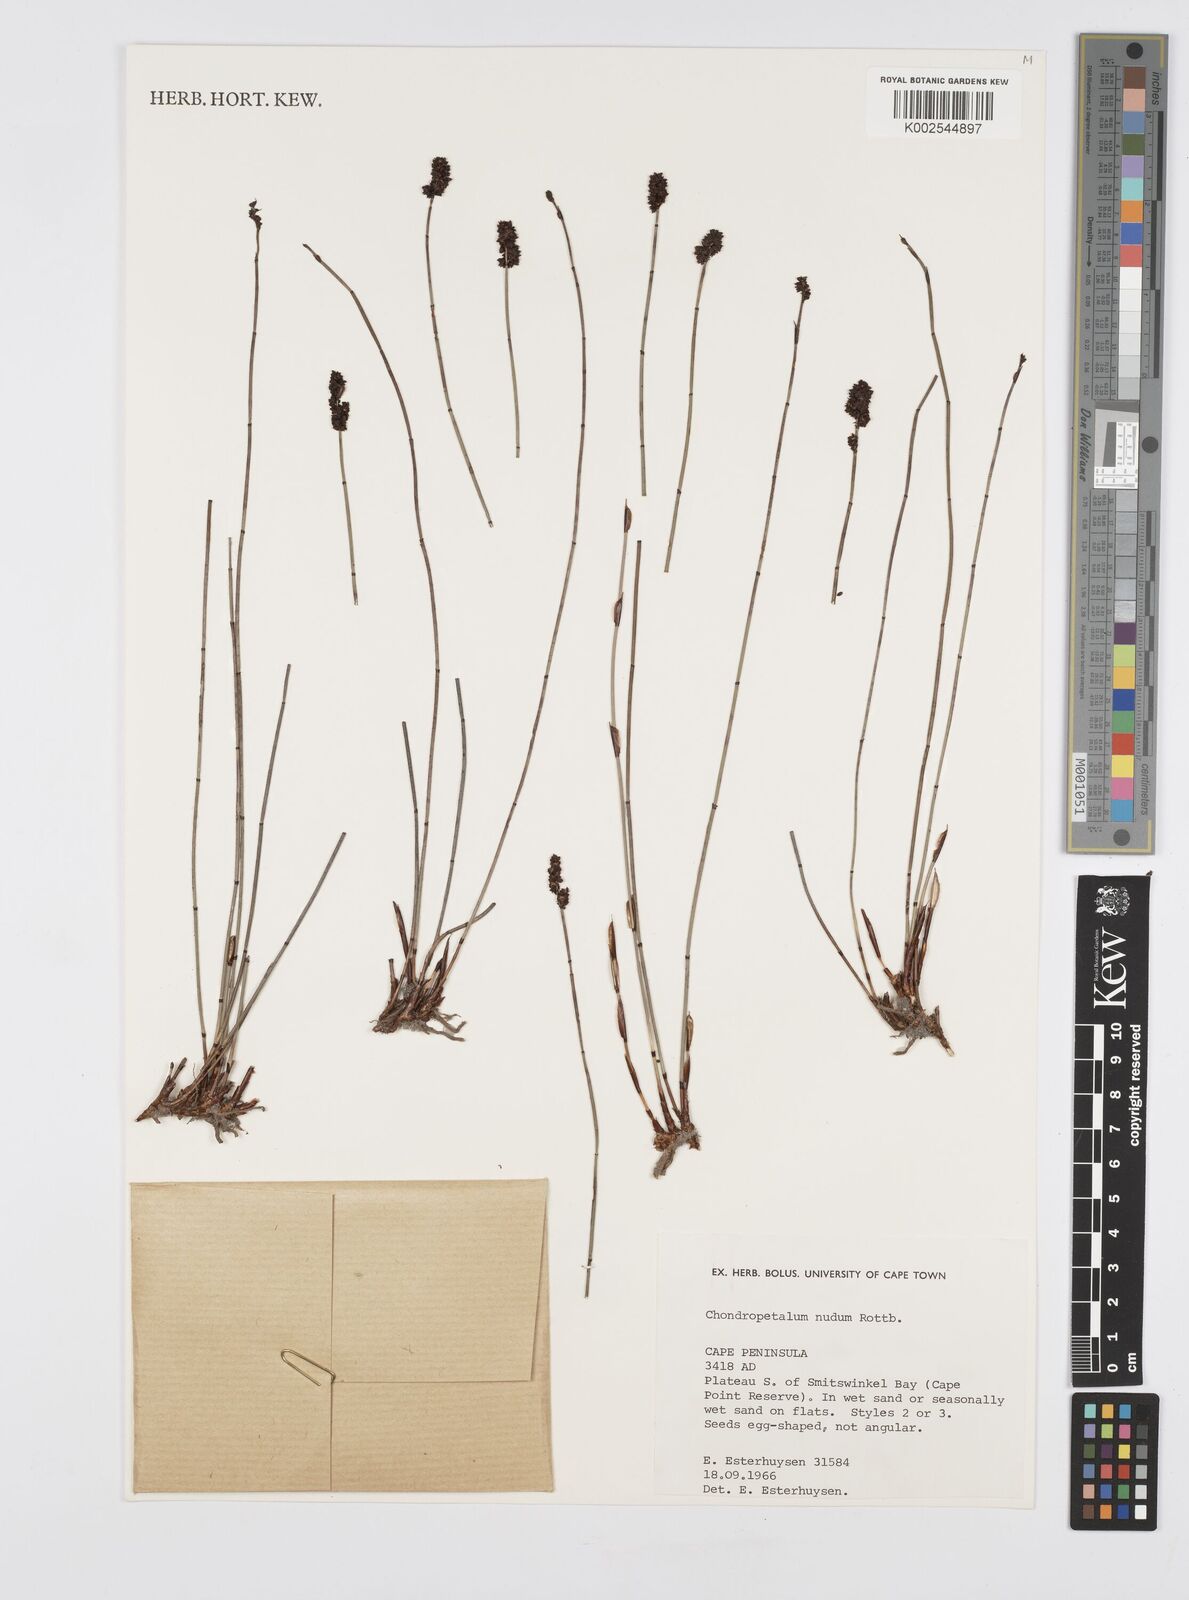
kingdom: Plantae
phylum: Tracheophyta
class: Liliopsida
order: Poales
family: Restionaceae
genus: Elegia
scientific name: Elegia nuda
